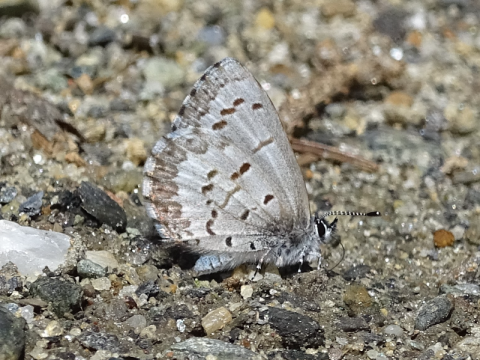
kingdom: Animalia
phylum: Arthropoda
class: Insecta
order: Lepidoptera
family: Lycaenidae
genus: Celastrina
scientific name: Celastrina lucia
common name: Northern Spring Azure
